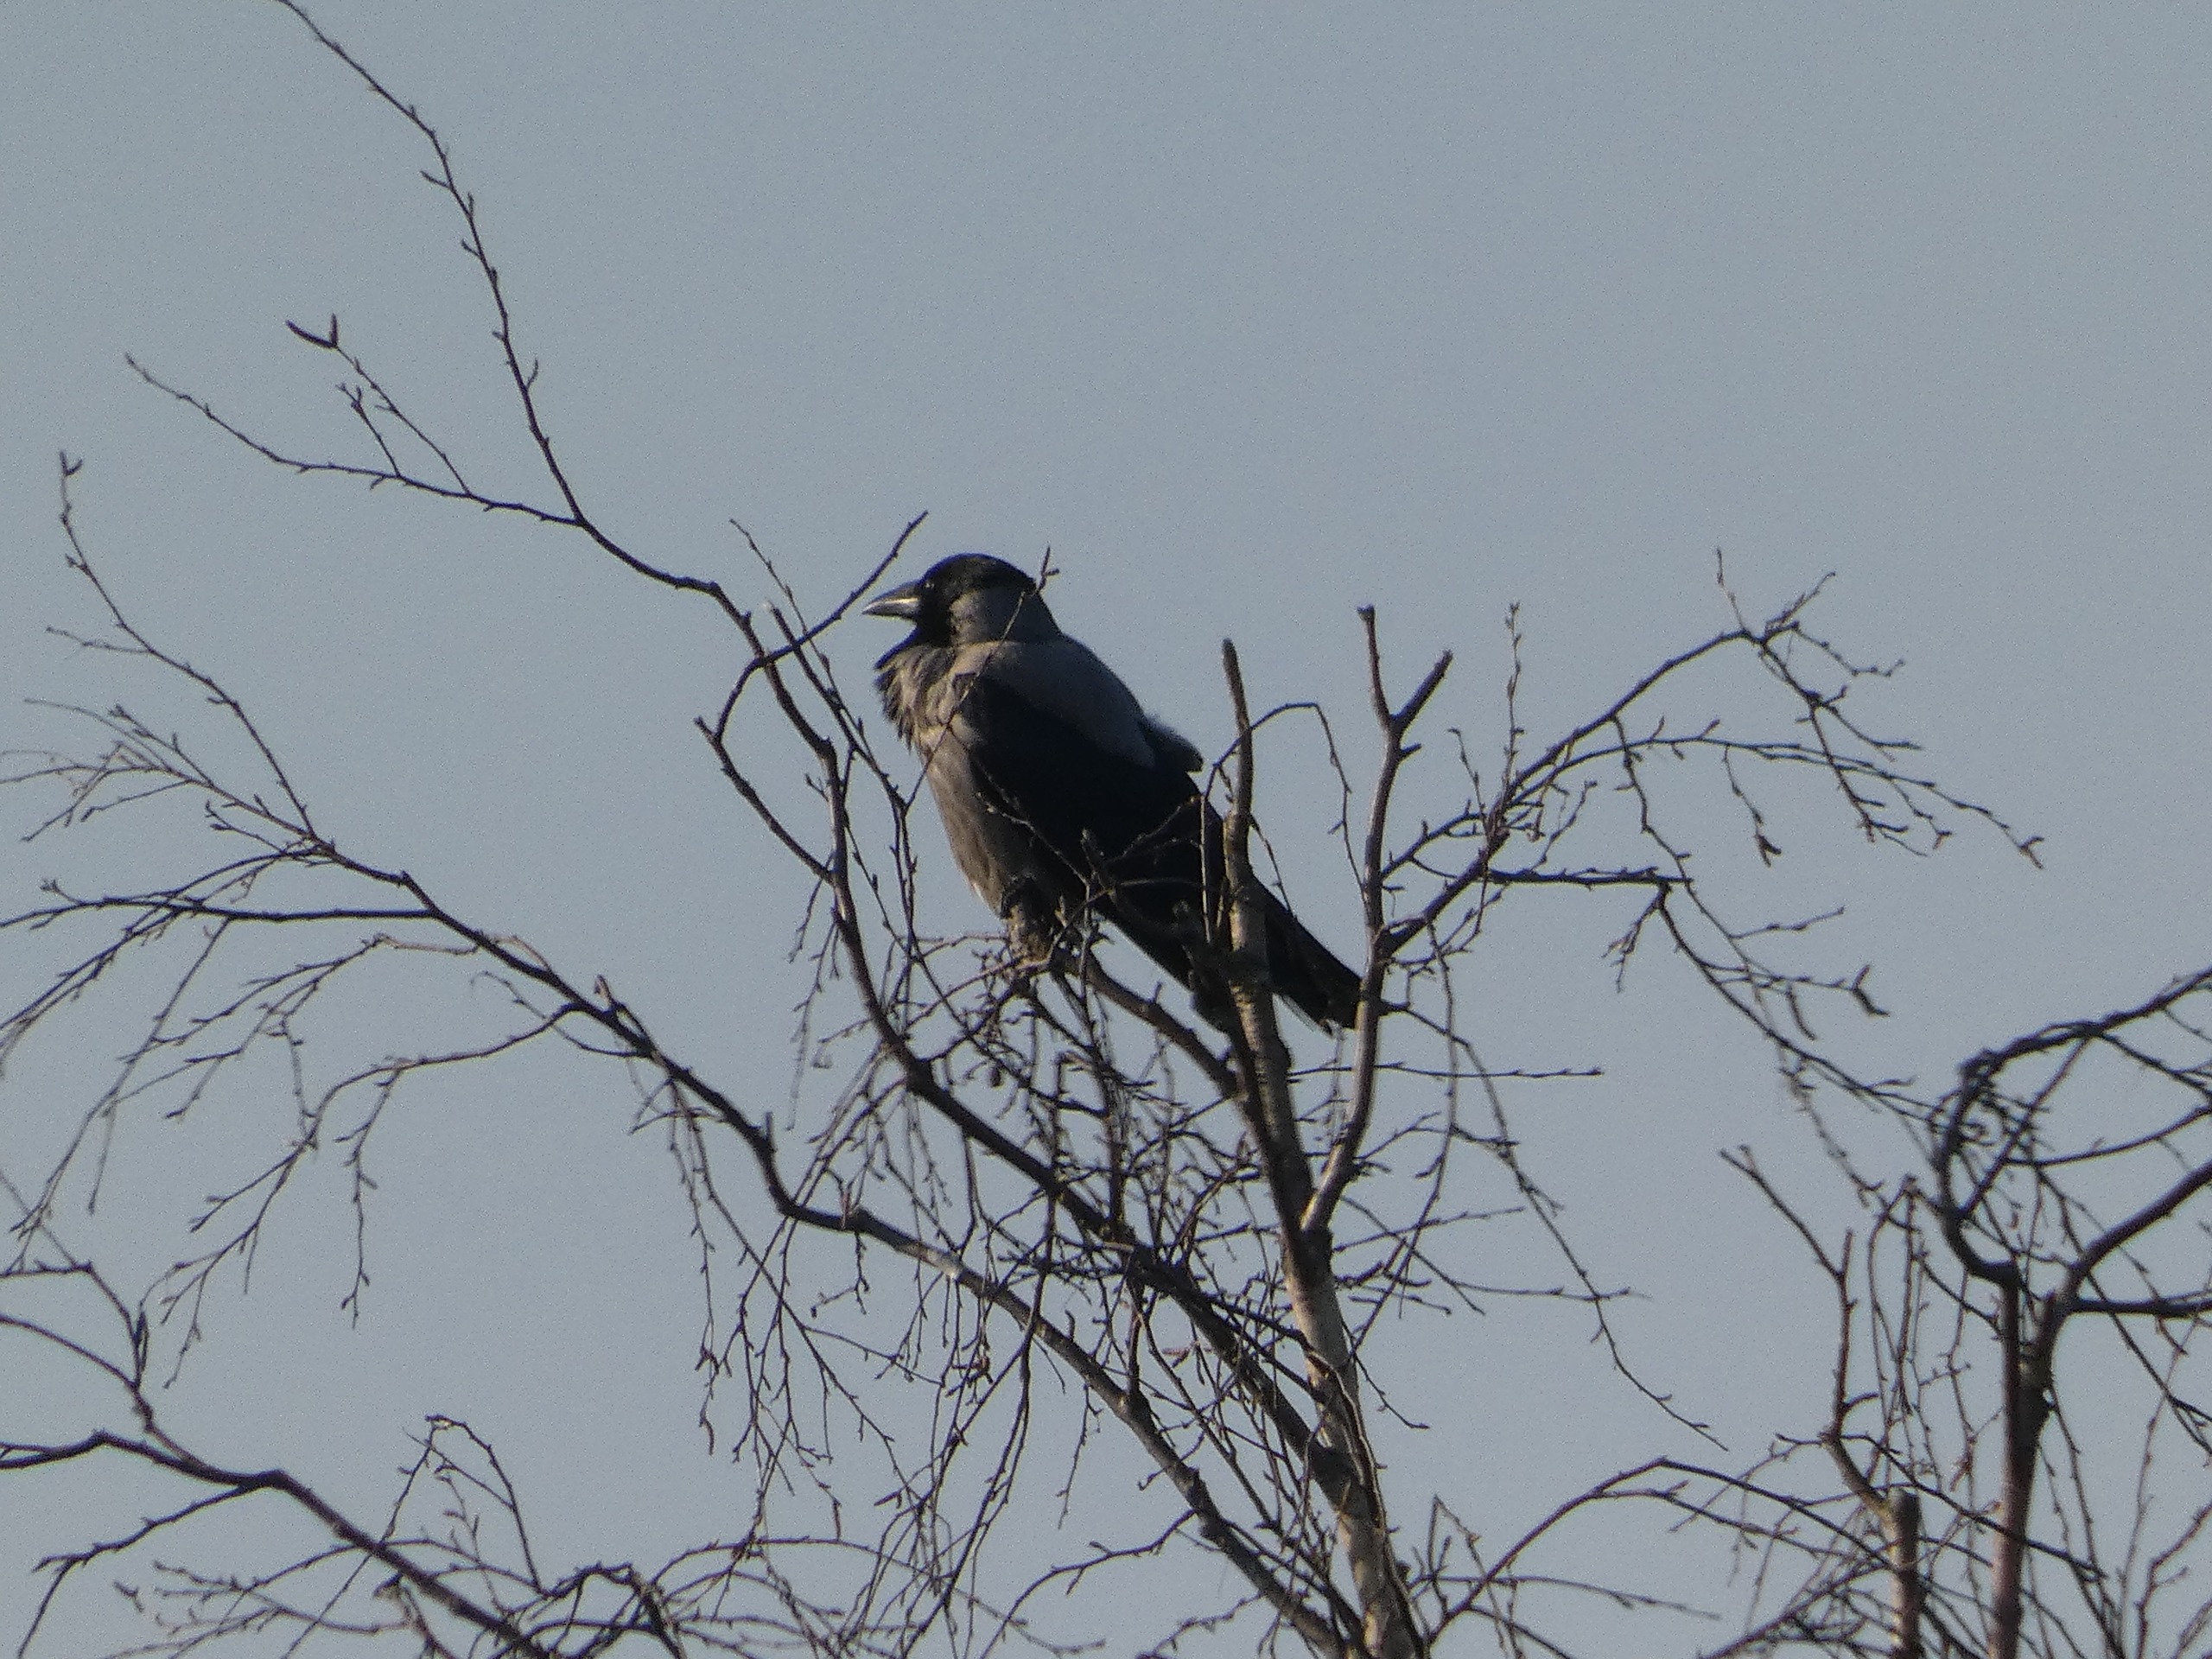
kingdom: Animalia
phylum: Chordata
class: Aves
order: Passeriformes
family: Corvidae
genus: Corvus
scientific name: Corvus cornix
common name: Gråkrage
